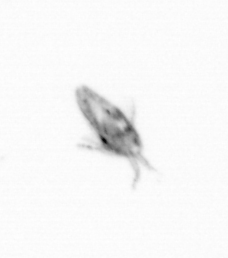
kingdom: Animalia
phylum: Arthropoda
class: Copepoda
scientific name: Copepoda
